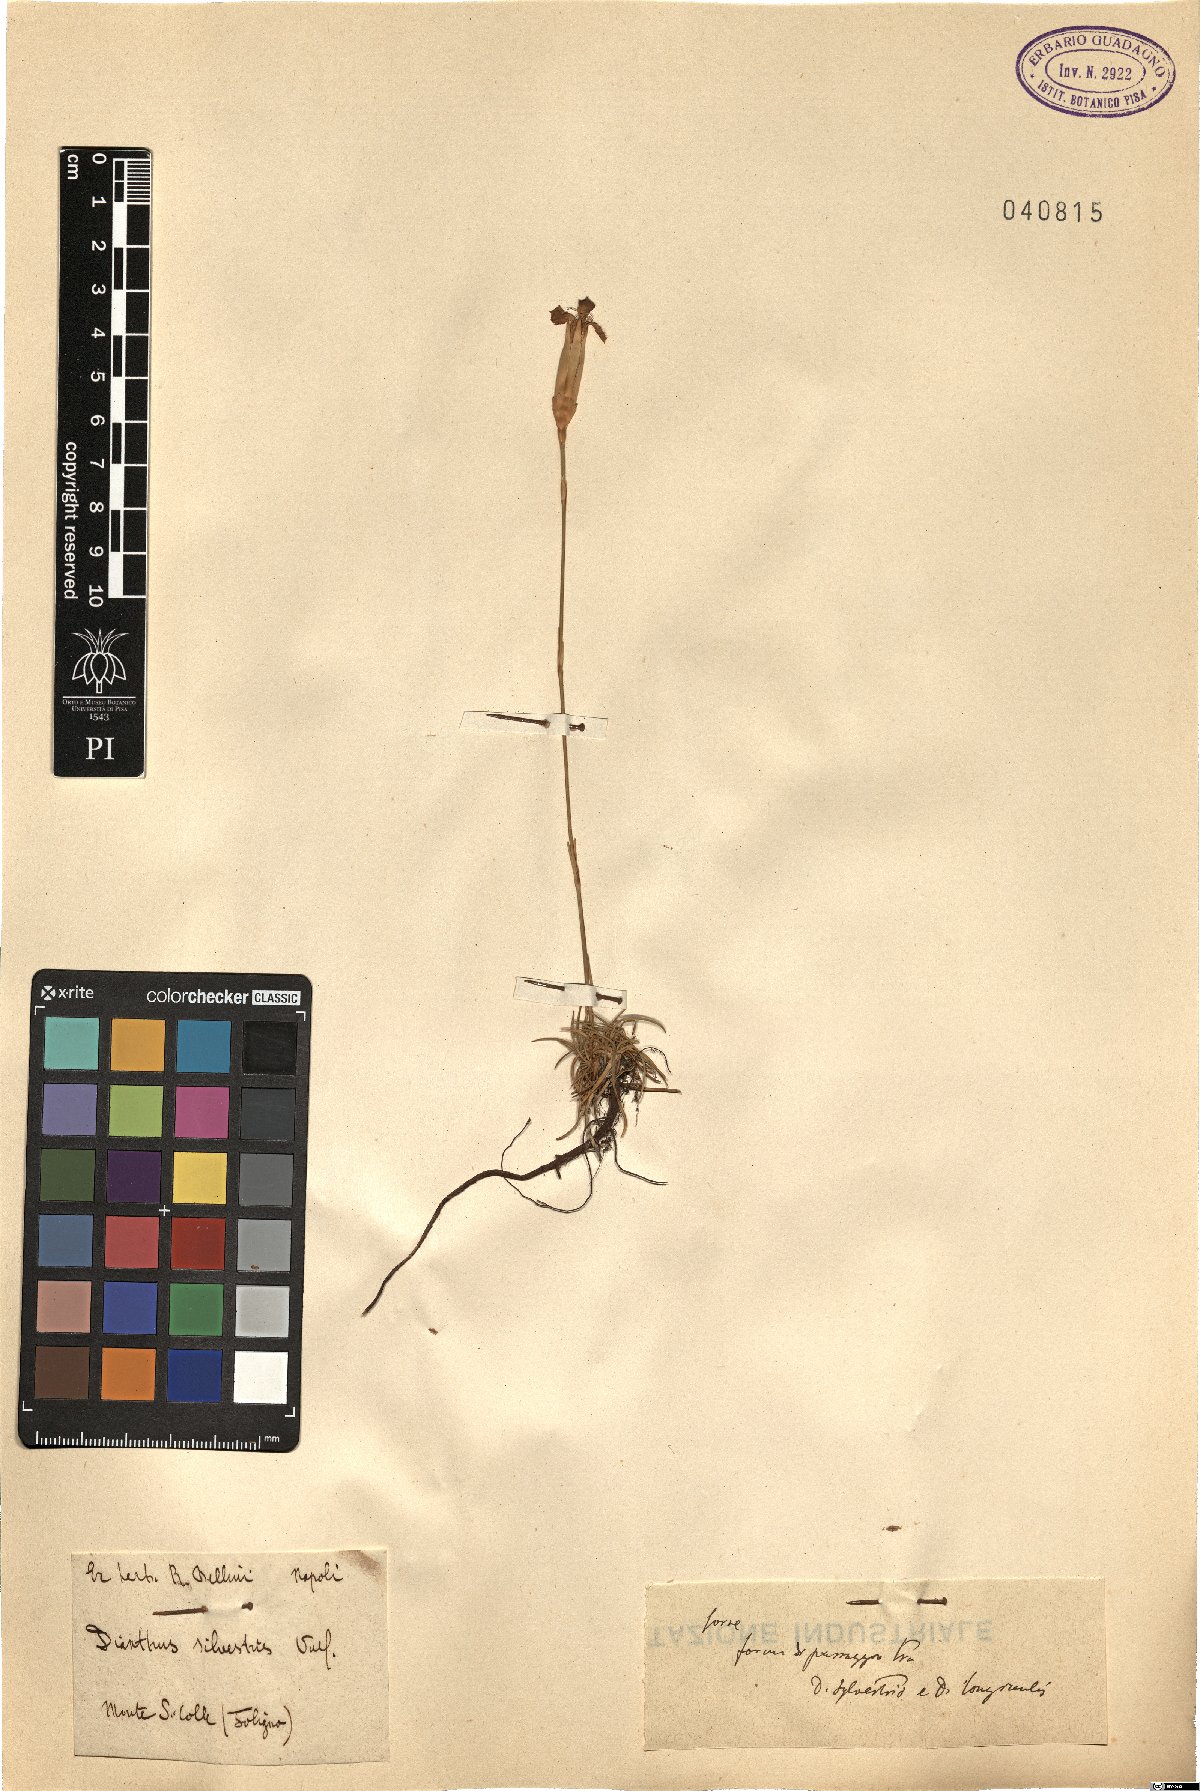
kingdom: Plantae
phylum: Tracheophyta
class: Magnoliopsida
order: Caryophyllales
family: Caryophyllaceae
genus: Dianthus
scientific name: Dianthus sylvestris
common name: Wood pink
